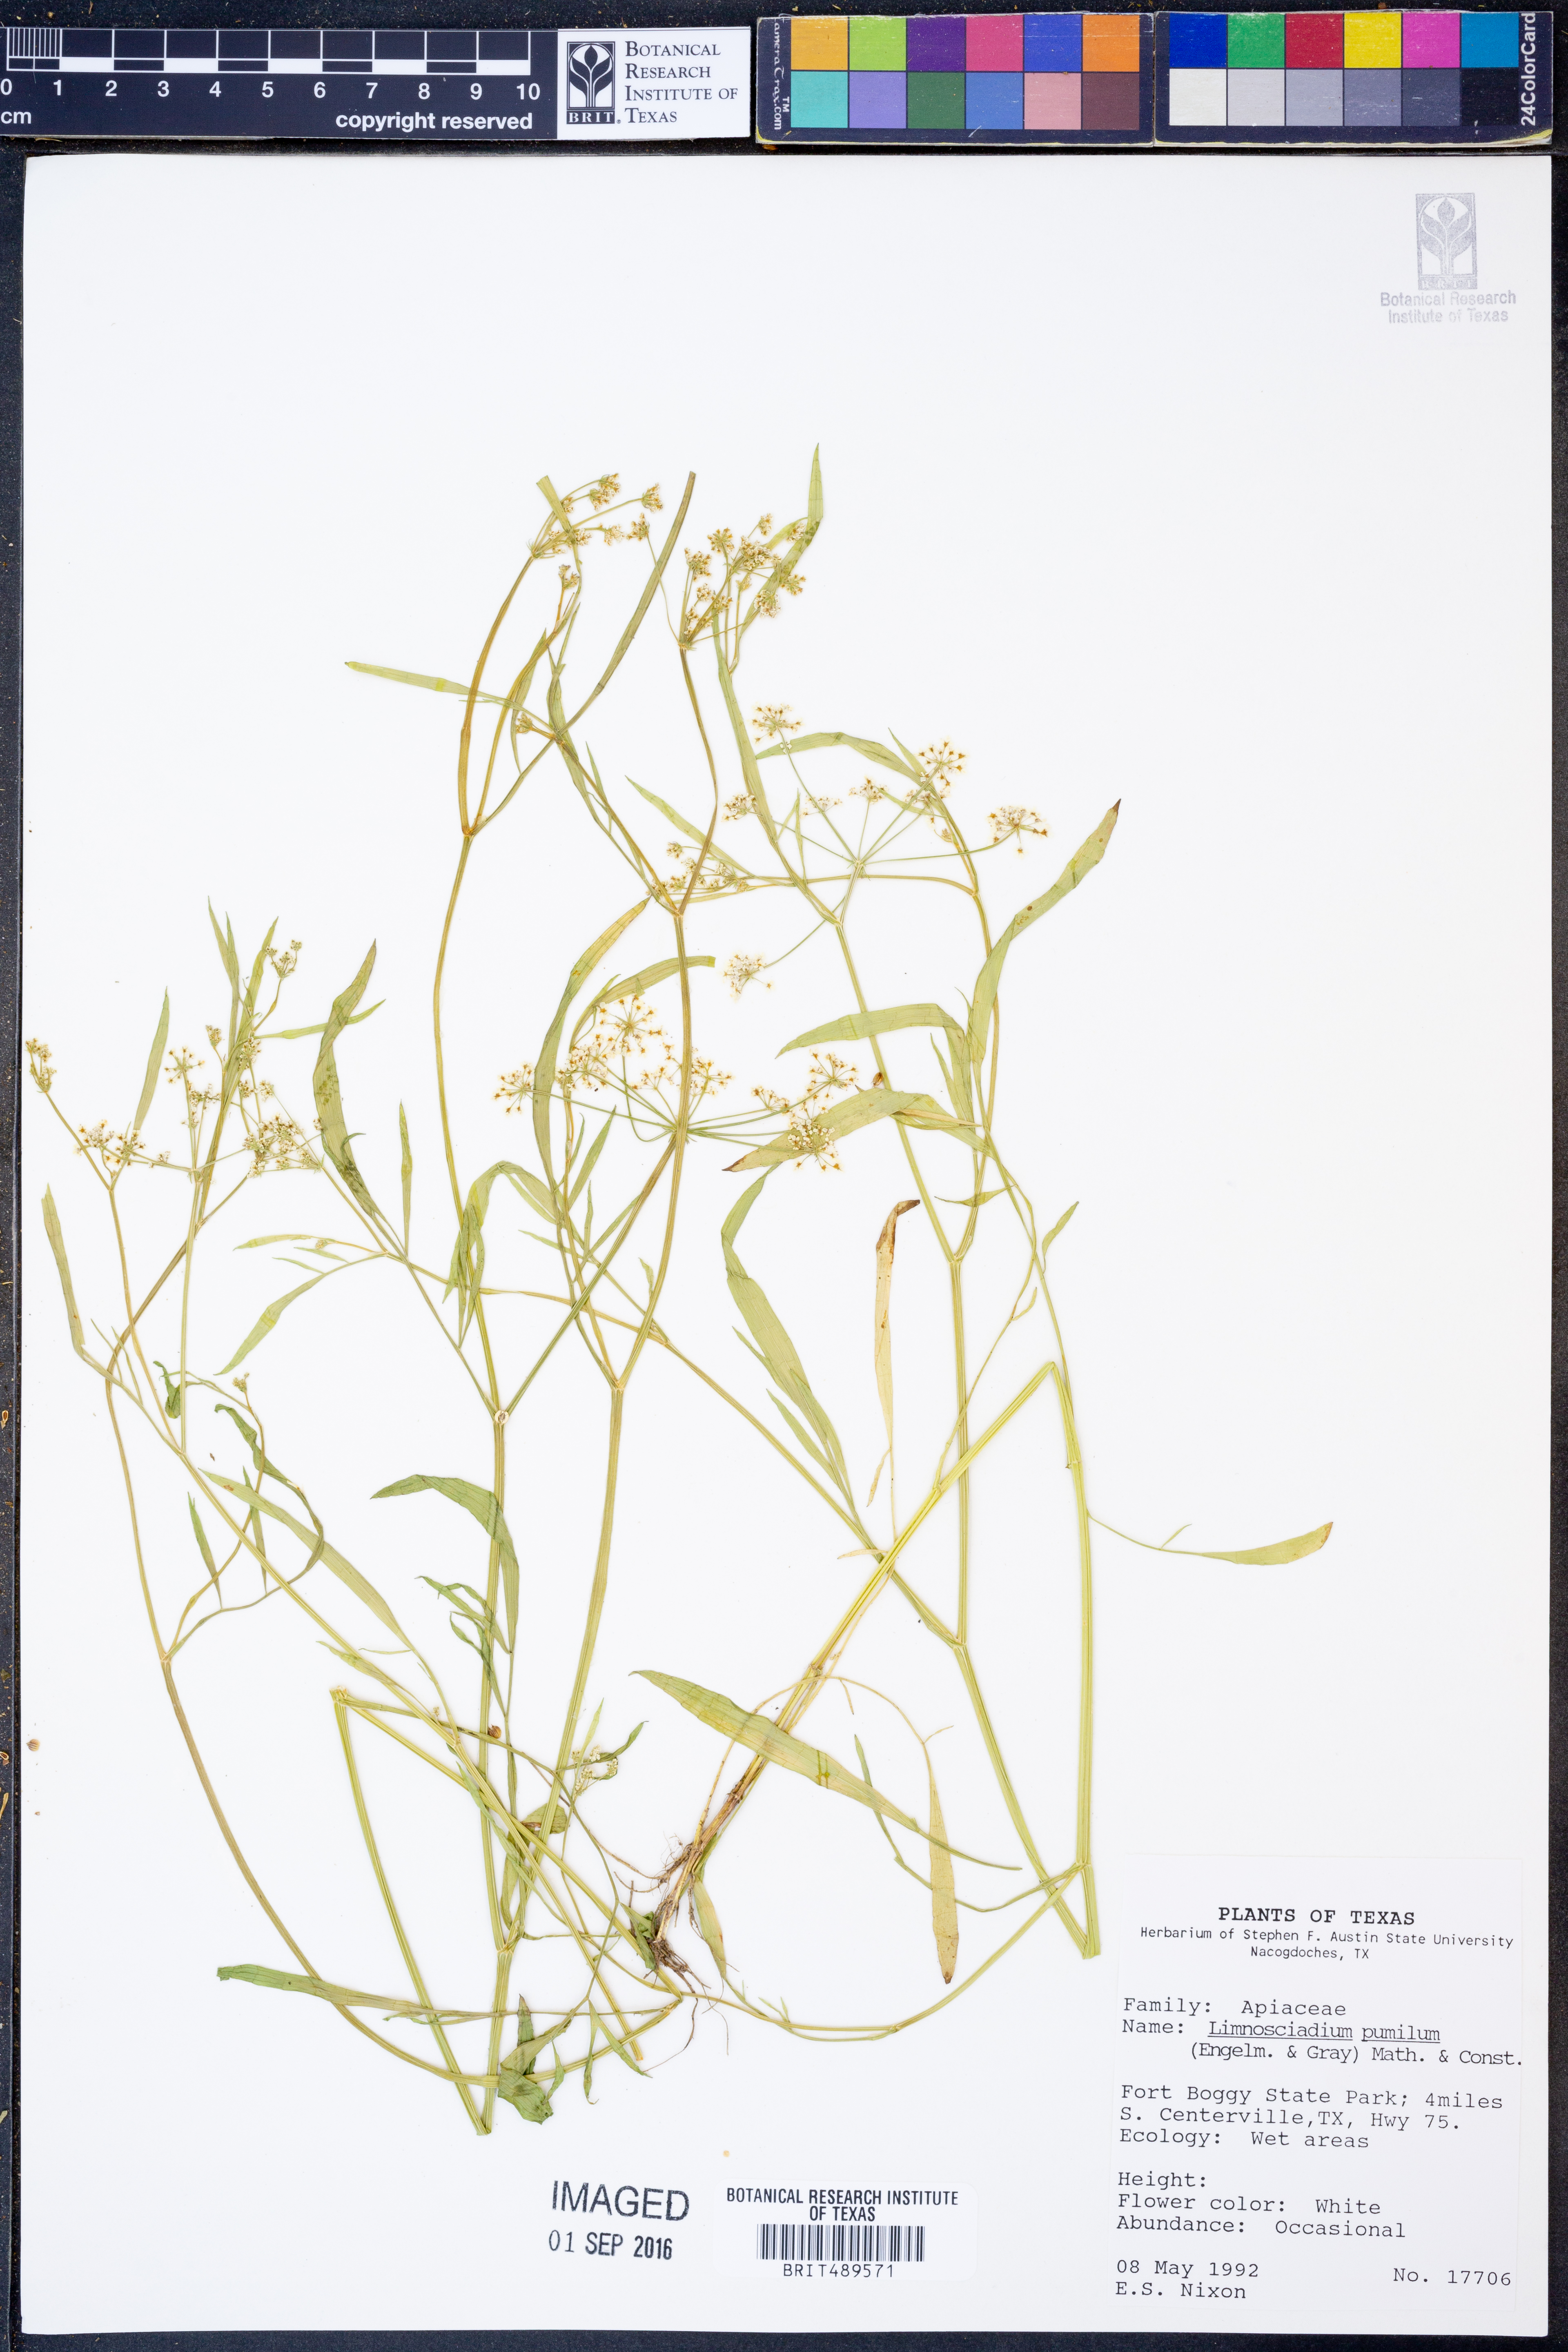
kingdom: Plantae
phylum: Tracheophyta
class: Magnoliopsida
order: Apiales
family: Apiaceae
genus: Limnosciadium
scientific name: Limnosciadium pinnatum
